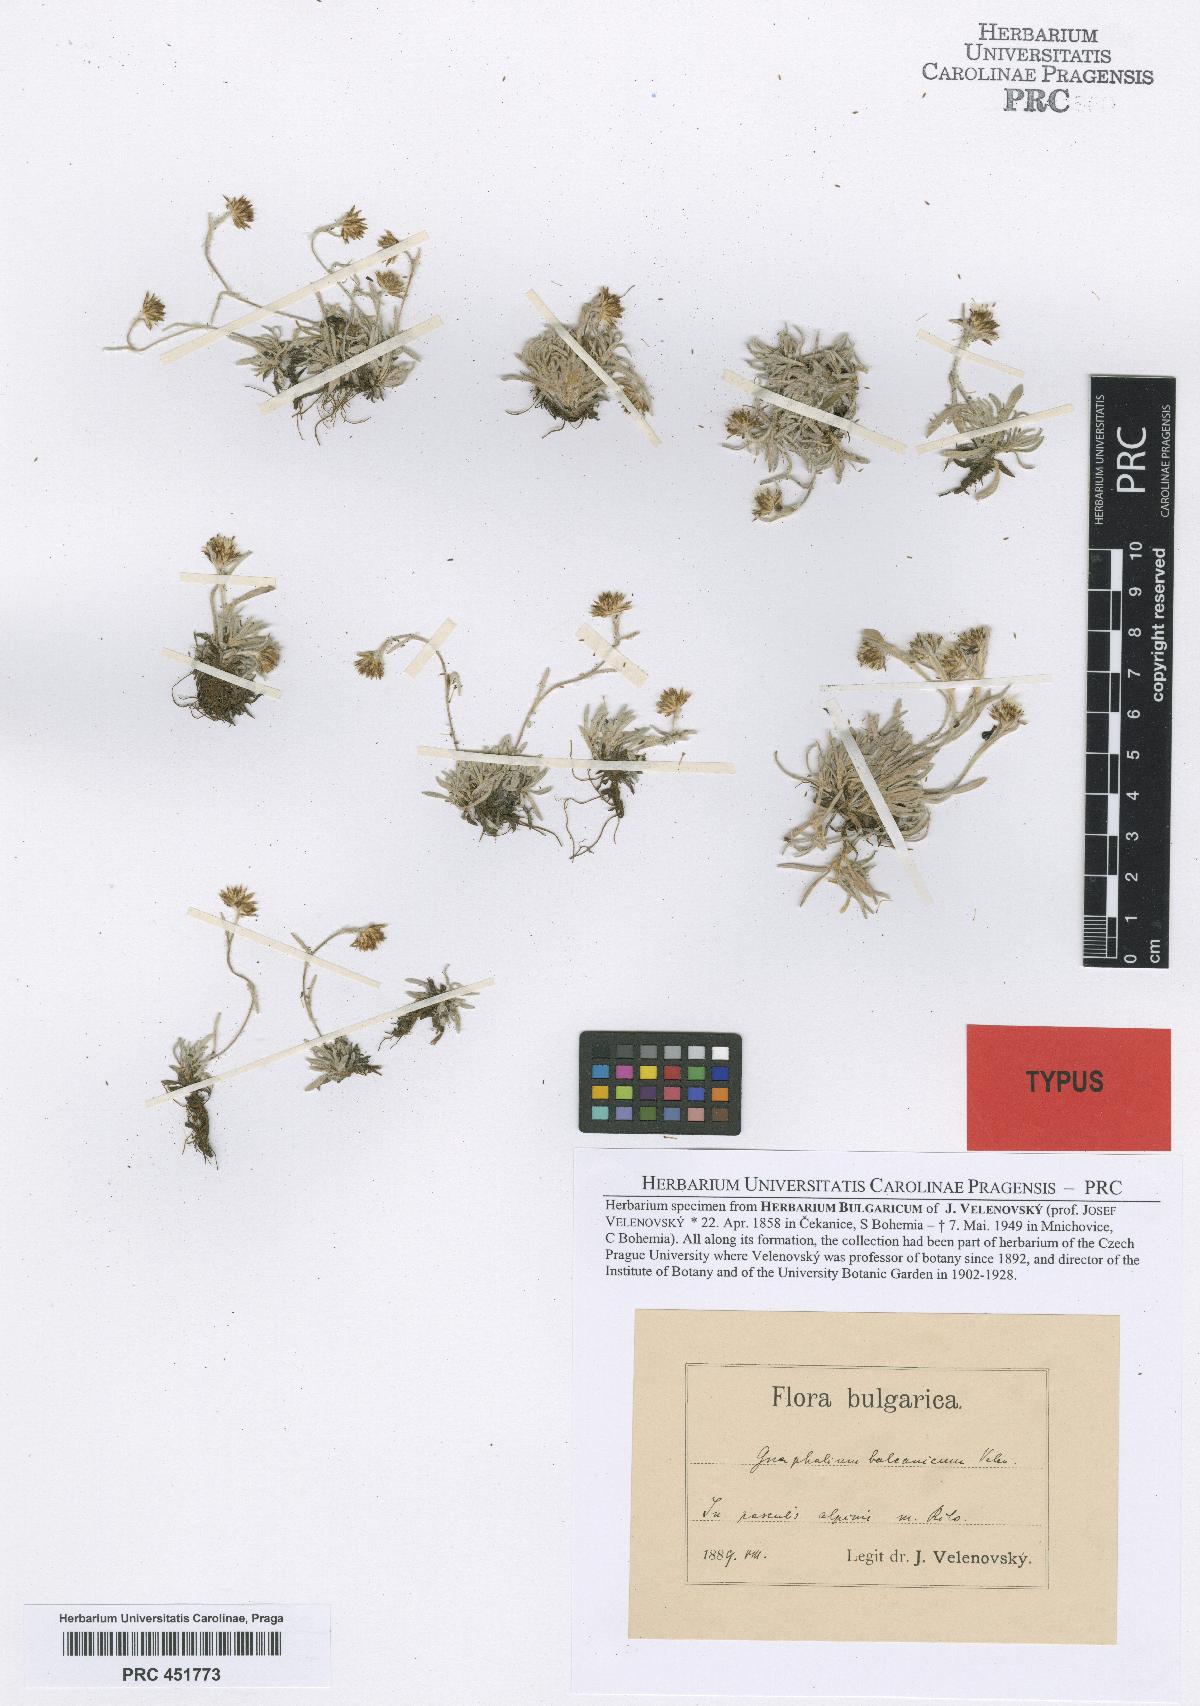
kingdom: Plantae
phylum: Tracheophyta
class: Magnoliopsida
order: Asterales
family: Asteraceae
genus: Omalotheca
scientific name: Omalotheca supina
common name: Alpine arctic-cudweed
